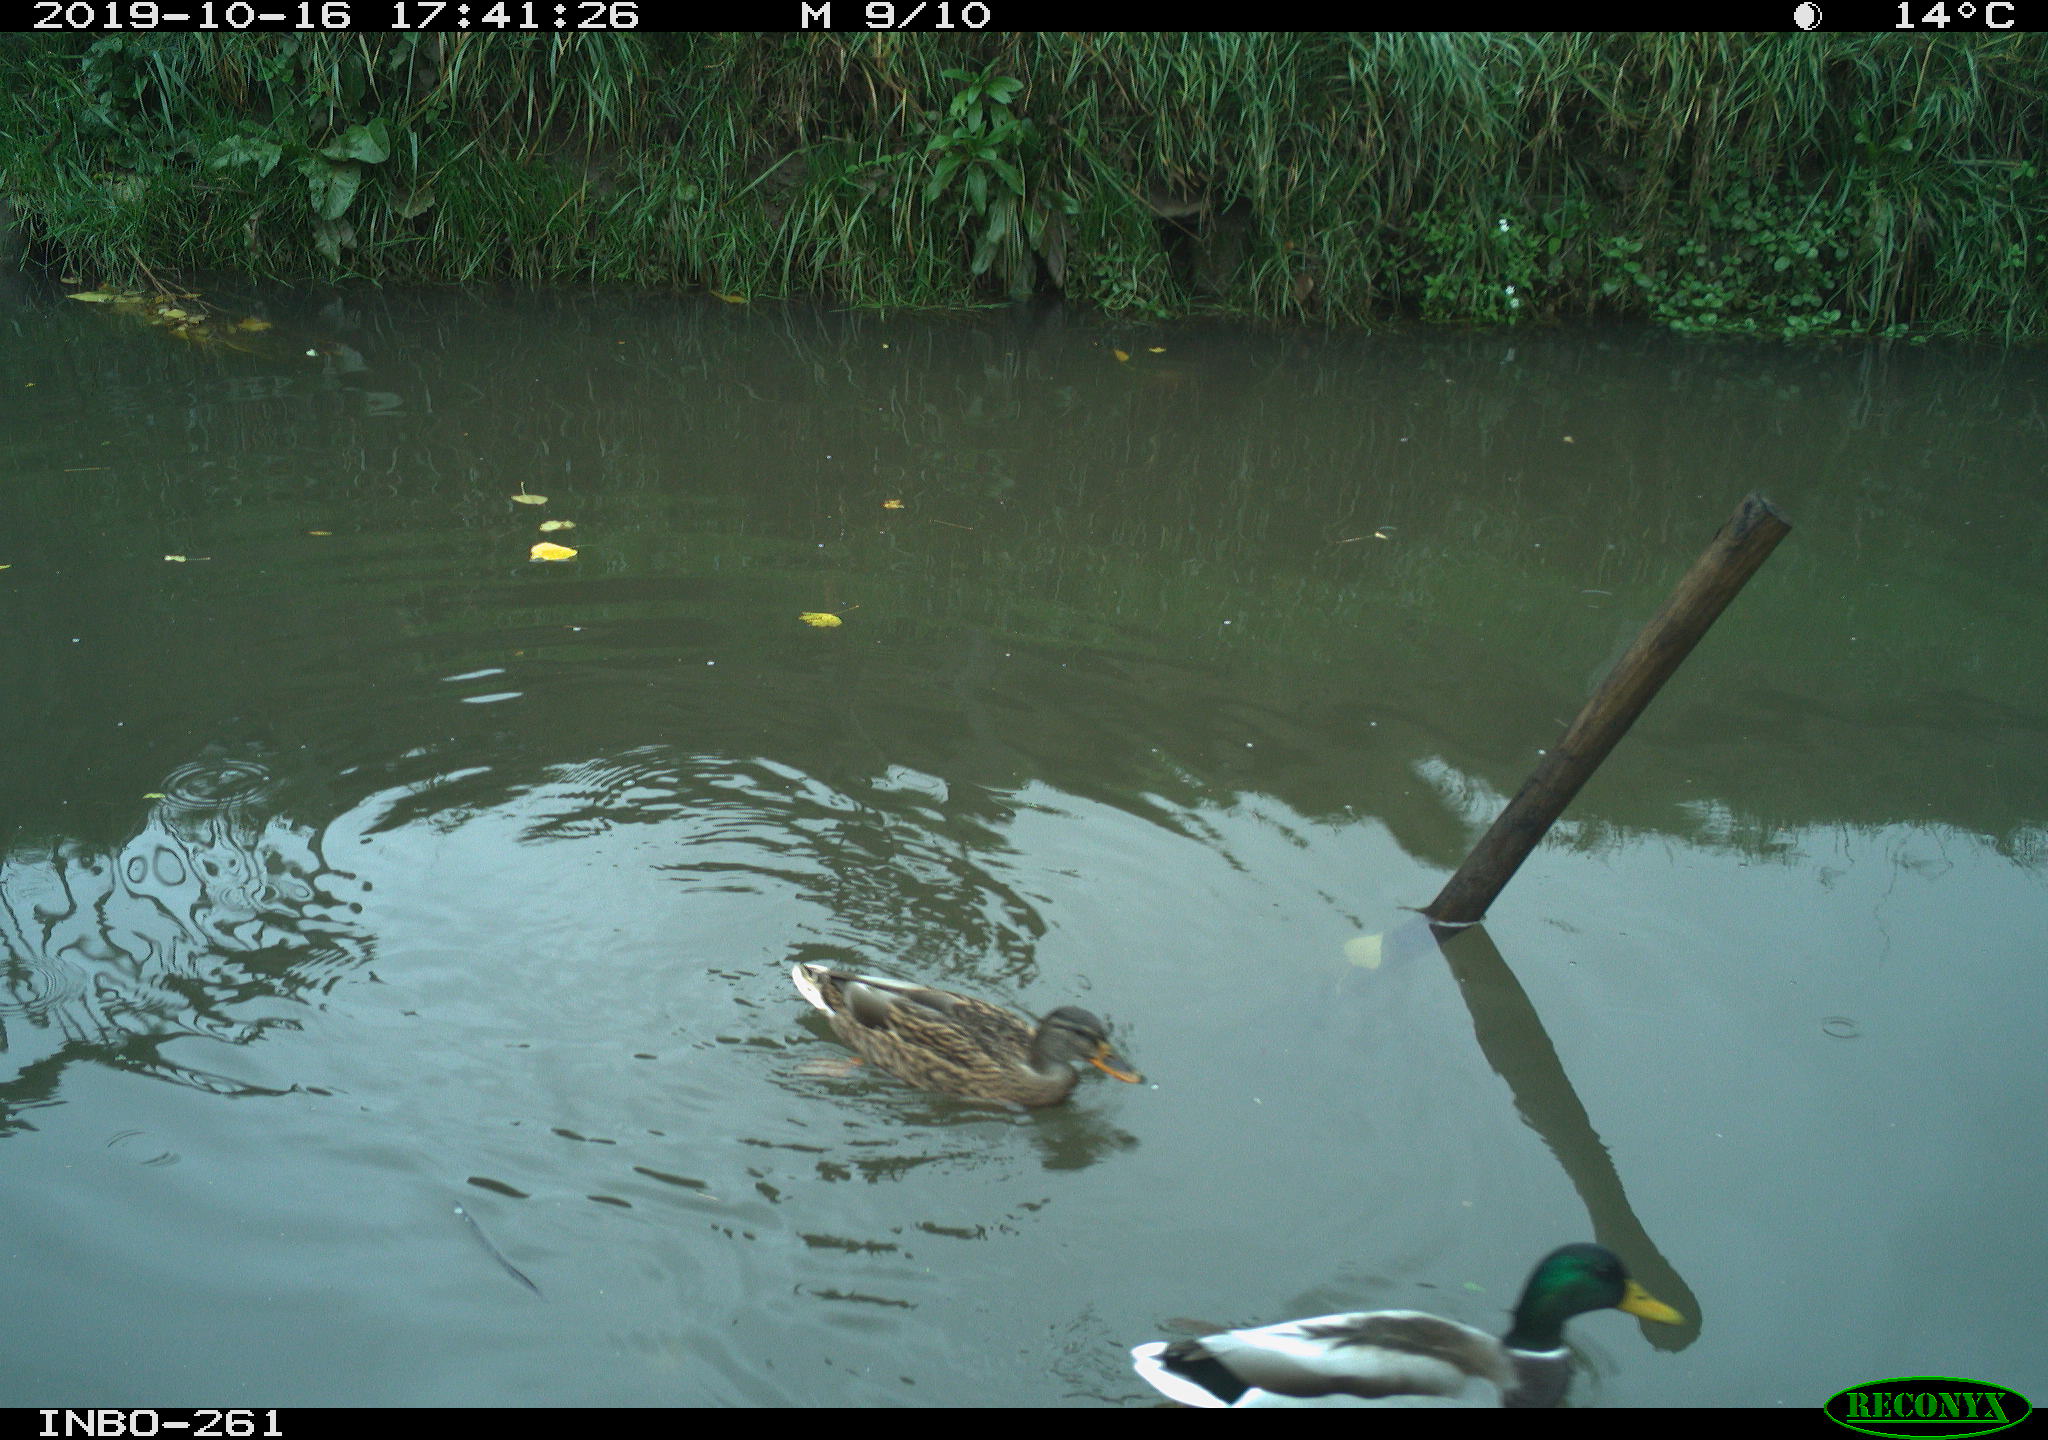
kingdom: Animalia
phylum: Chordata
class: Aves
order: Anseriformes
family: Anatidae
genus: Anas
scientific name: Anas platyrhynchos
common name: Mallard
